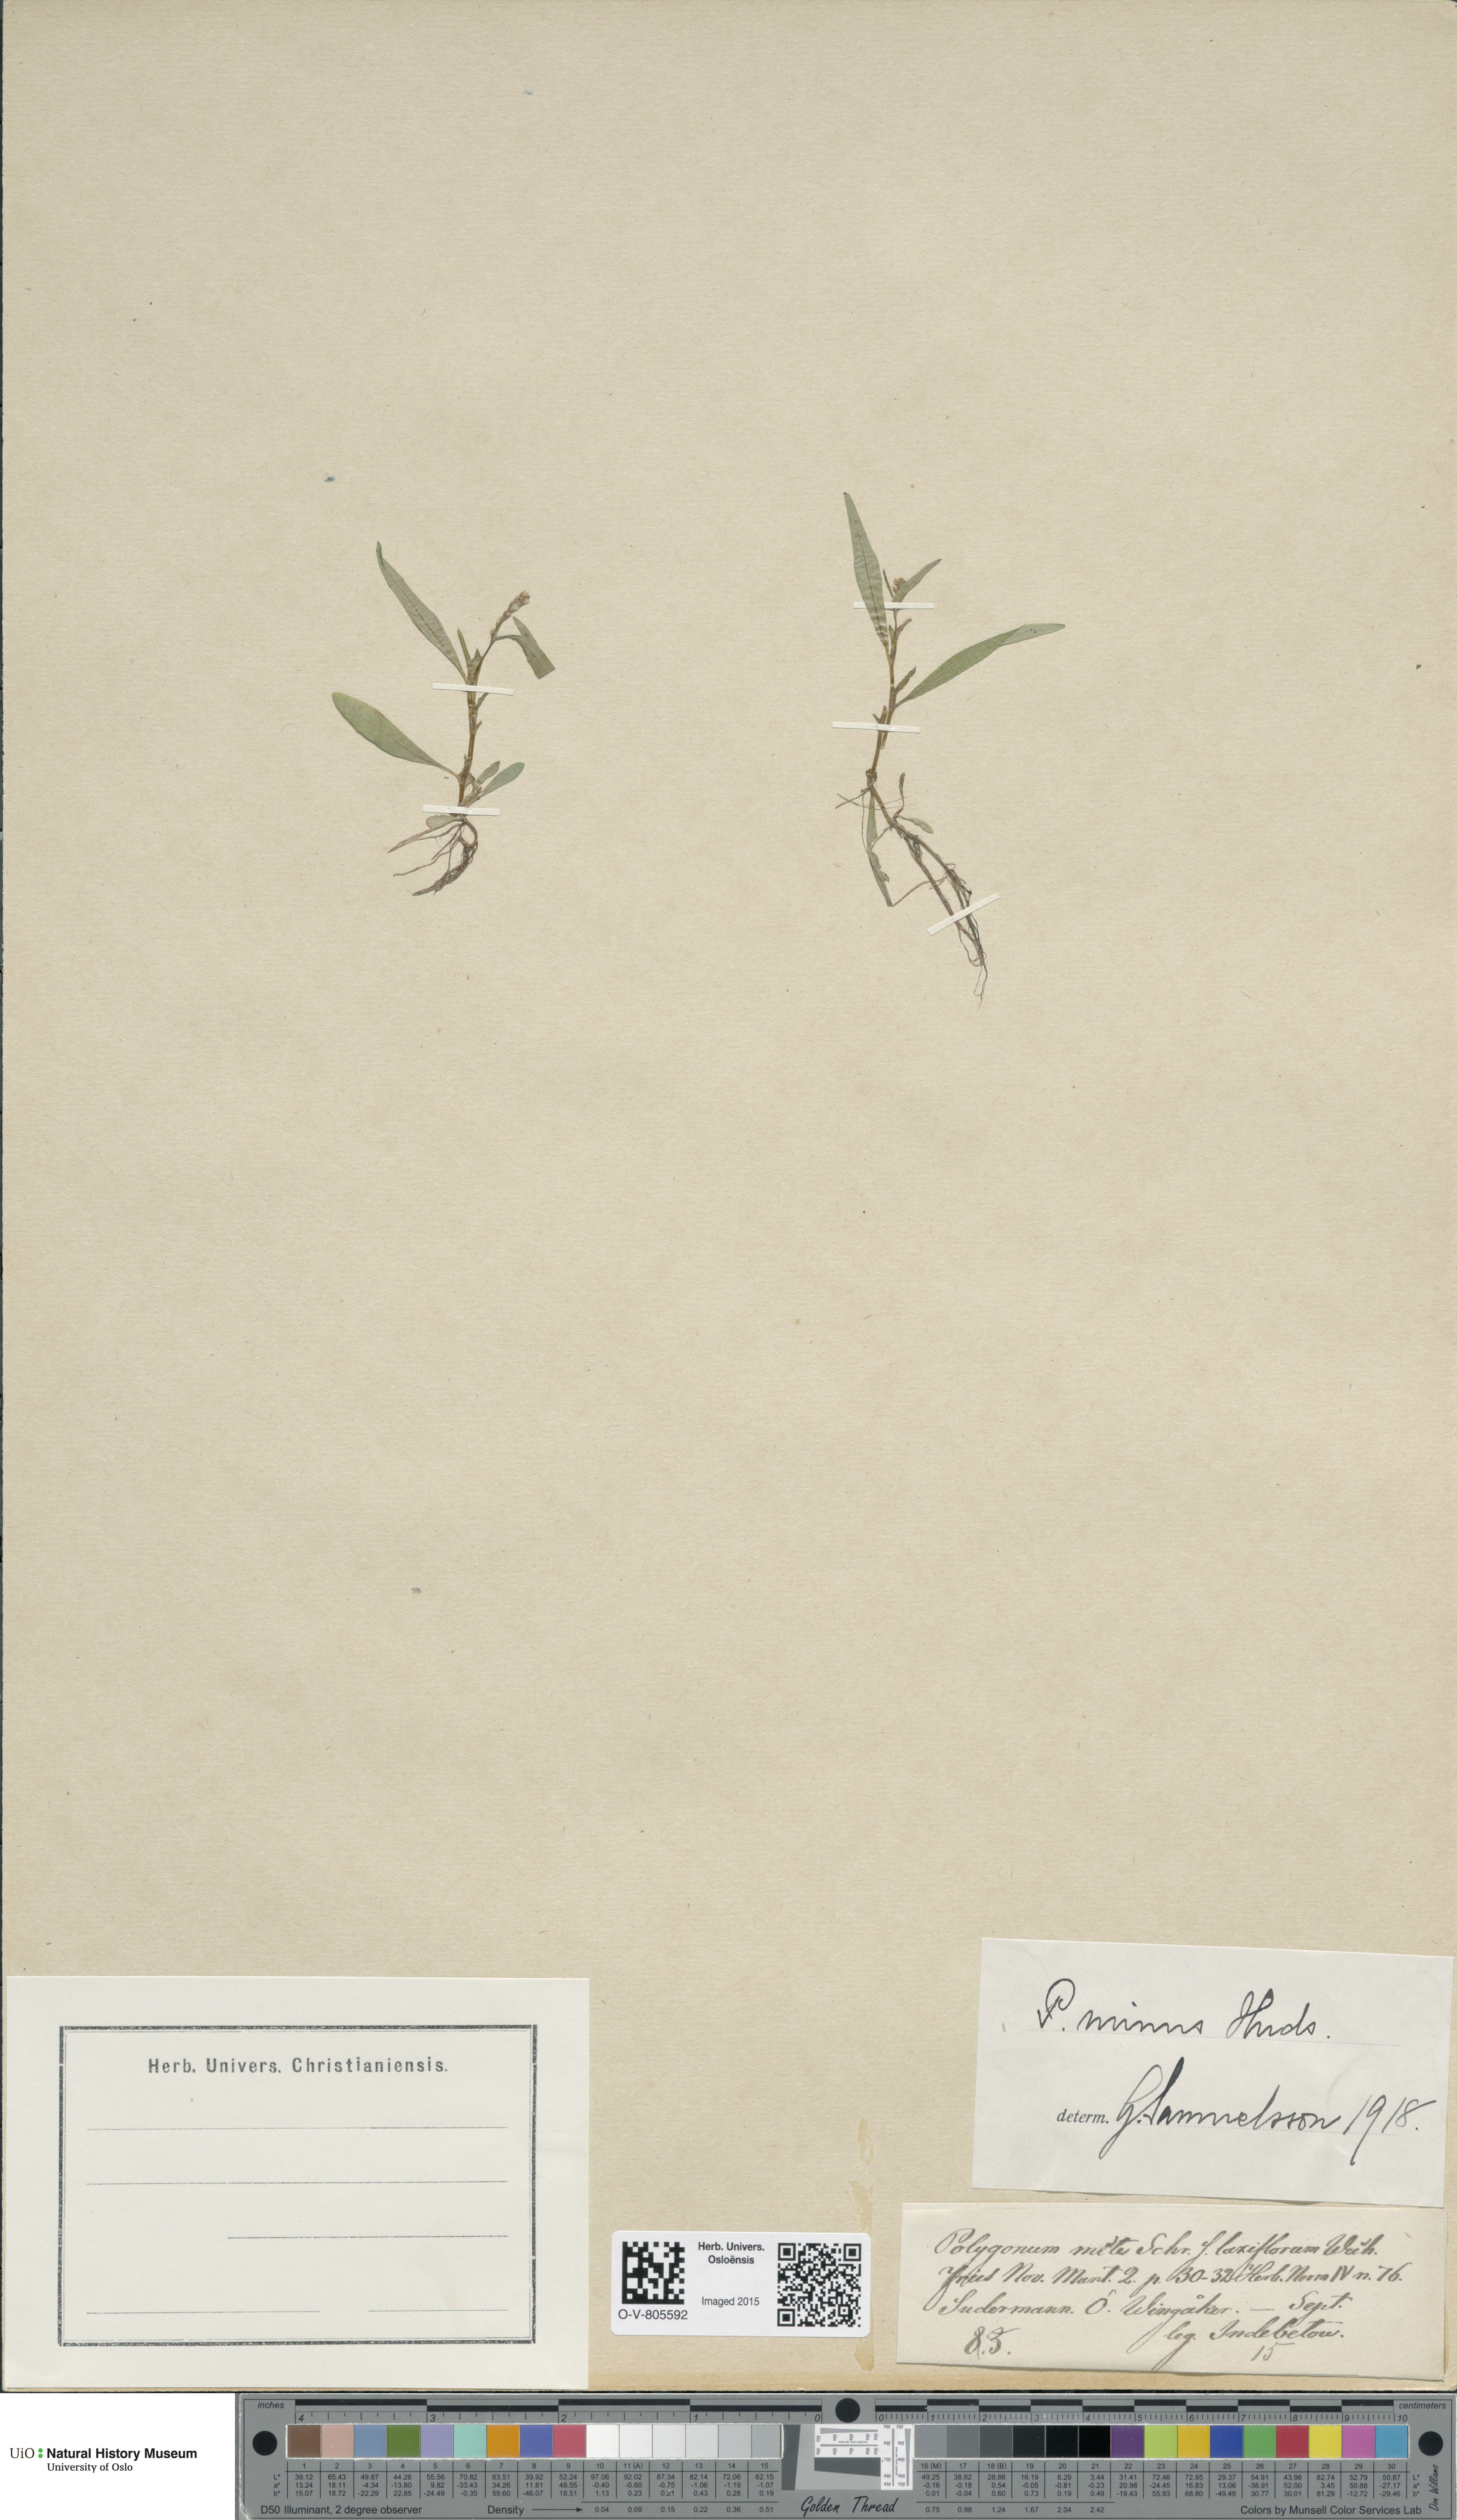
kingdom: Plantae
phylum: Tracheophyta
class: Magnoliopsida
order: Caryophyllales
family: Polygonaceae
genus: Persicaria
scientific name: Persicaria minor
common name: Small water-pepper
